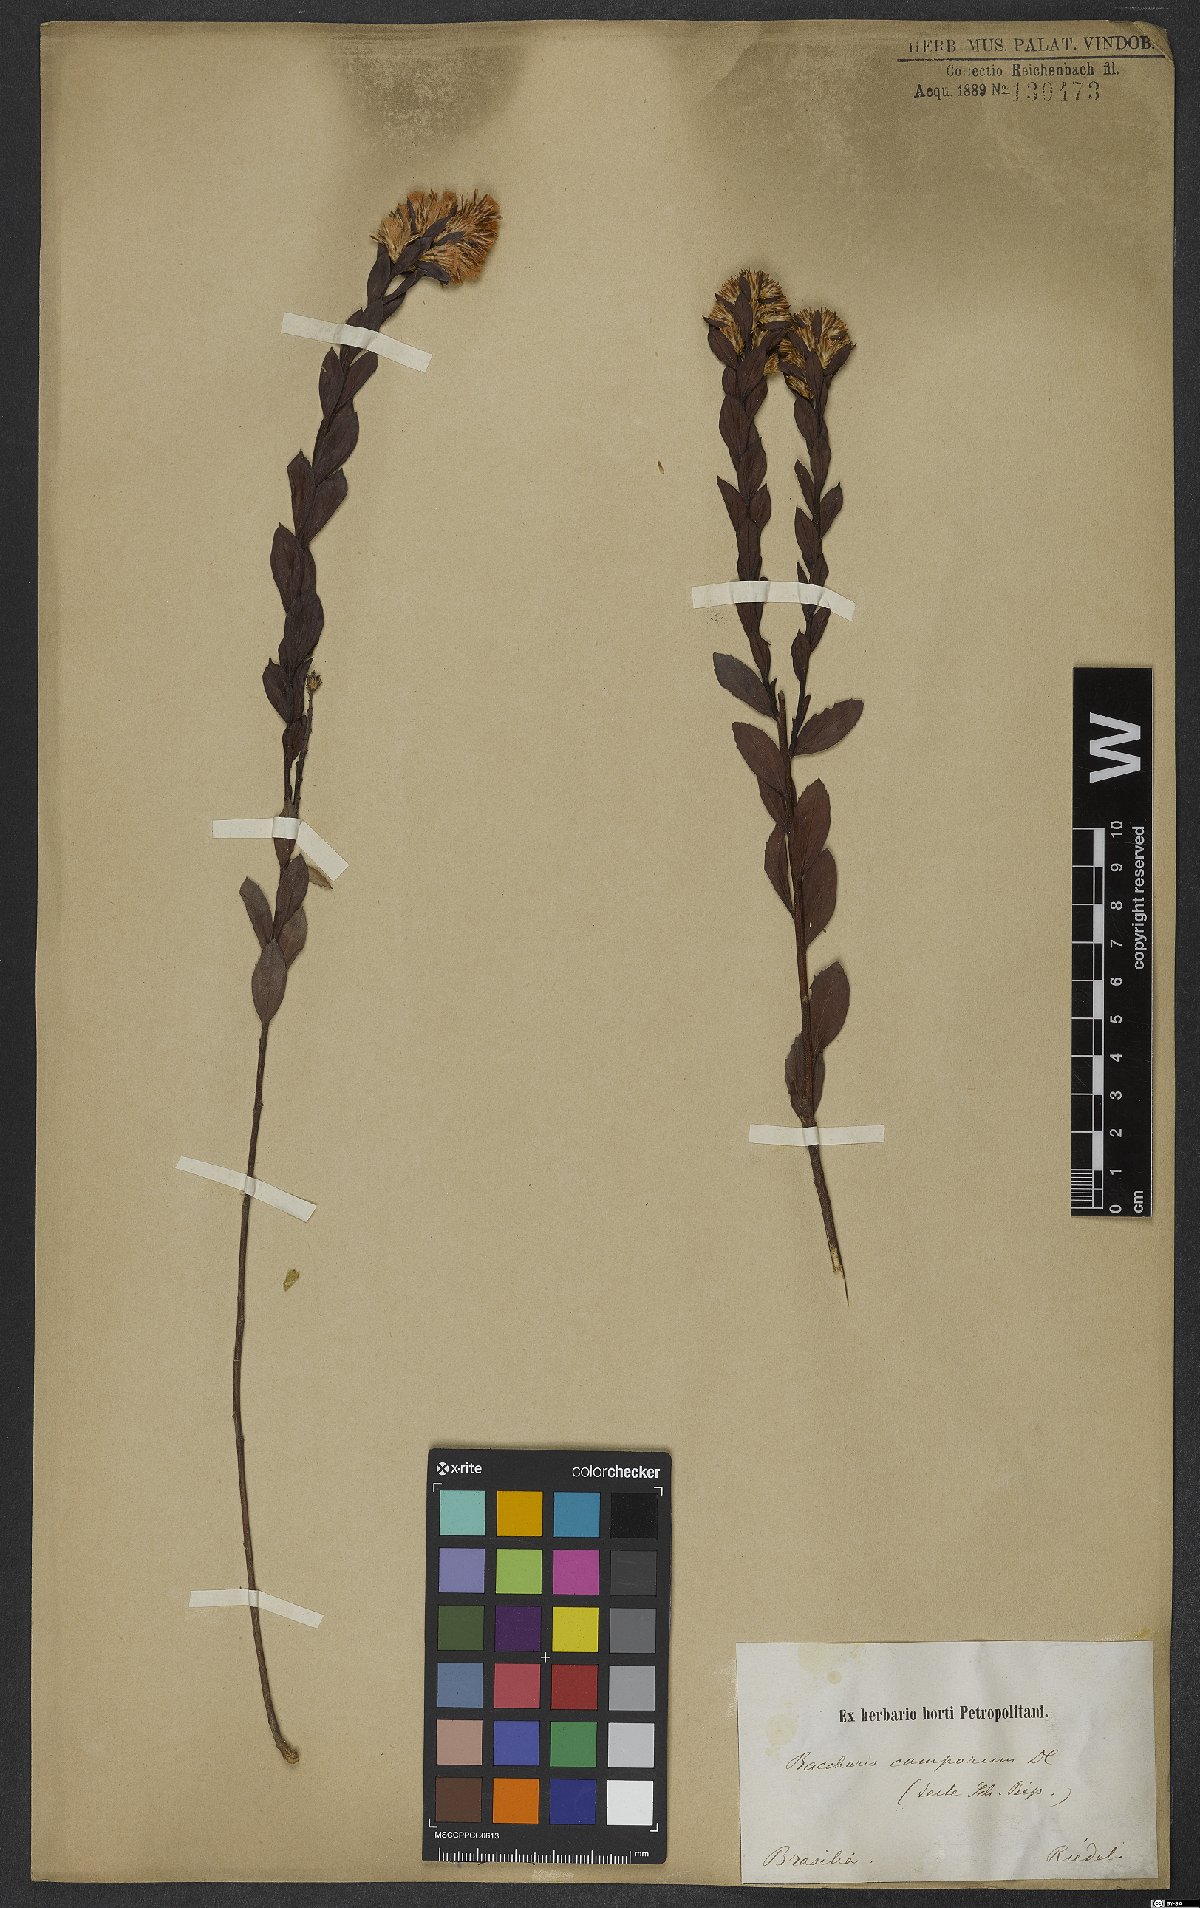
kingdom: Plantae
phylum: Tracheophyta
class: Magnoliopsida
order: Asterales
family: Asteraceae
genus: Baccharis
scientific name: Baccharis camporum
